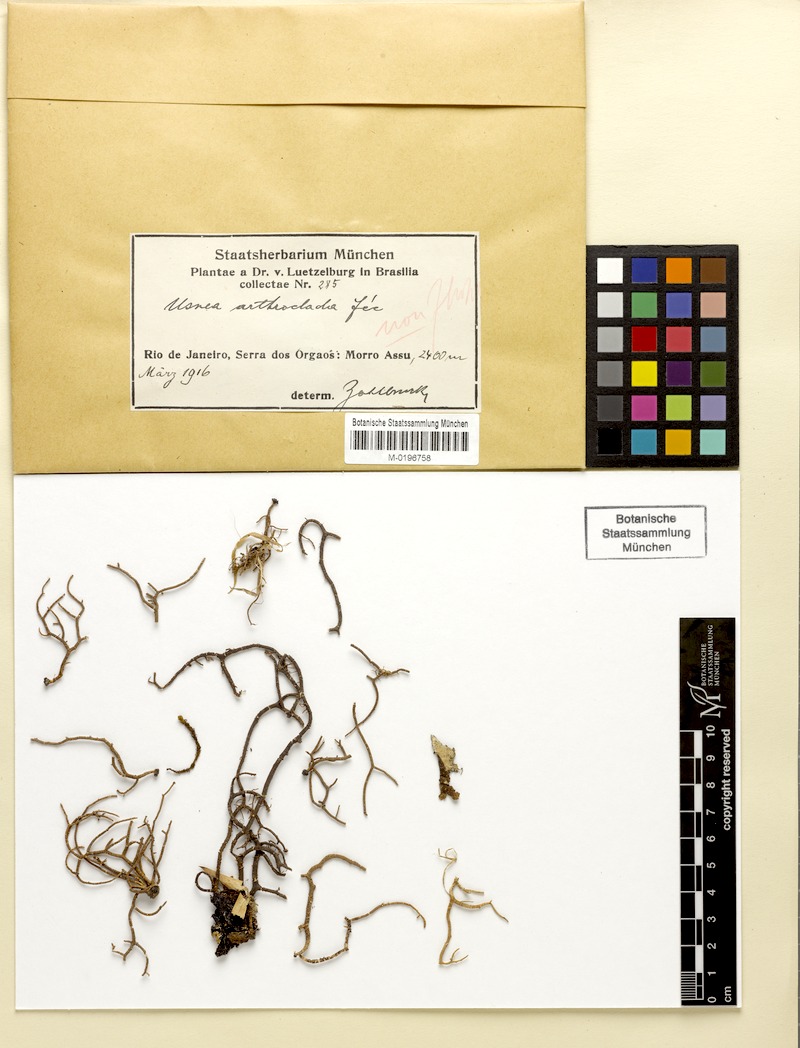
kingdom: Fungi
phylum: Ascomycota
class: Lecanoromycetes
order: Lecanorales
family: Parmeliaceae
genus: Usnea
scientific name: Usnea arthroclada
